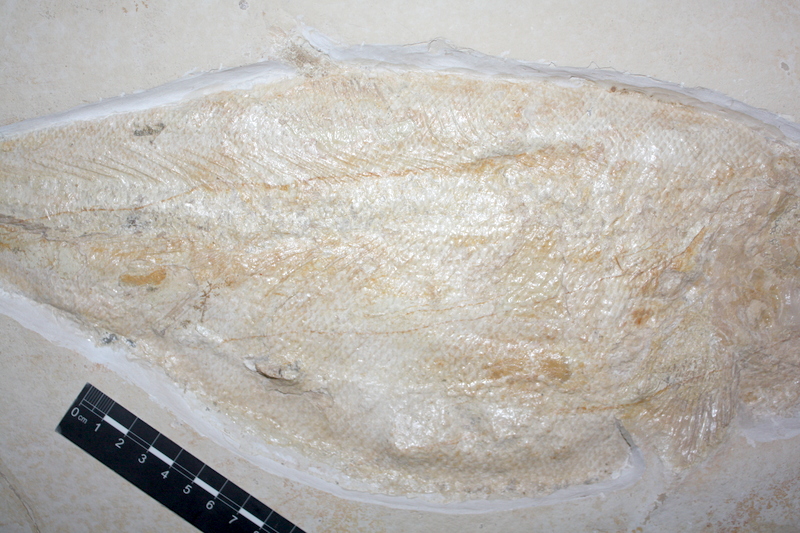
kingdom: Animalia
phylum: Chordata
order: Amiiformes
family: Caturidae
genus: Caturus
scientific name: Caturus furcatus
